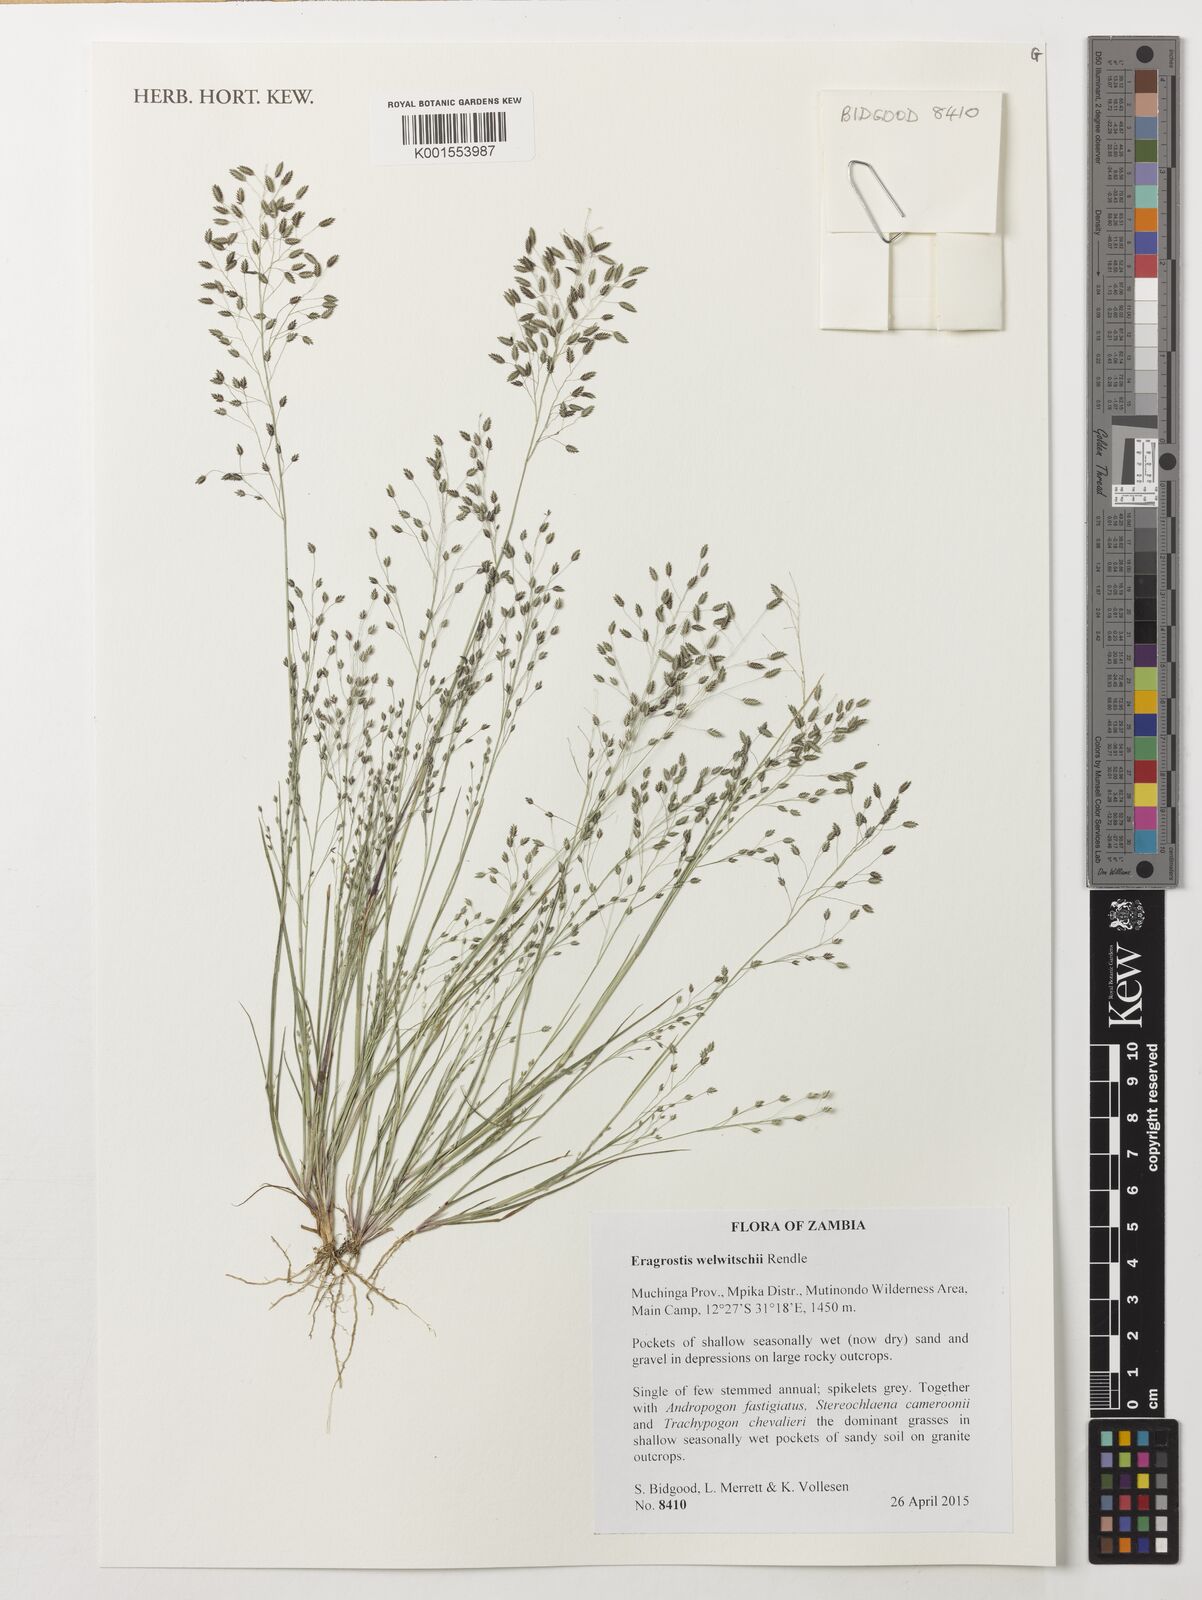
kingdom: Plantae
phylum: Tracheophyta
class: Liliopsida
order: Poales
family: Poaceae
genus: Eragrostis
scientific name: Eragrostis welwitschii
